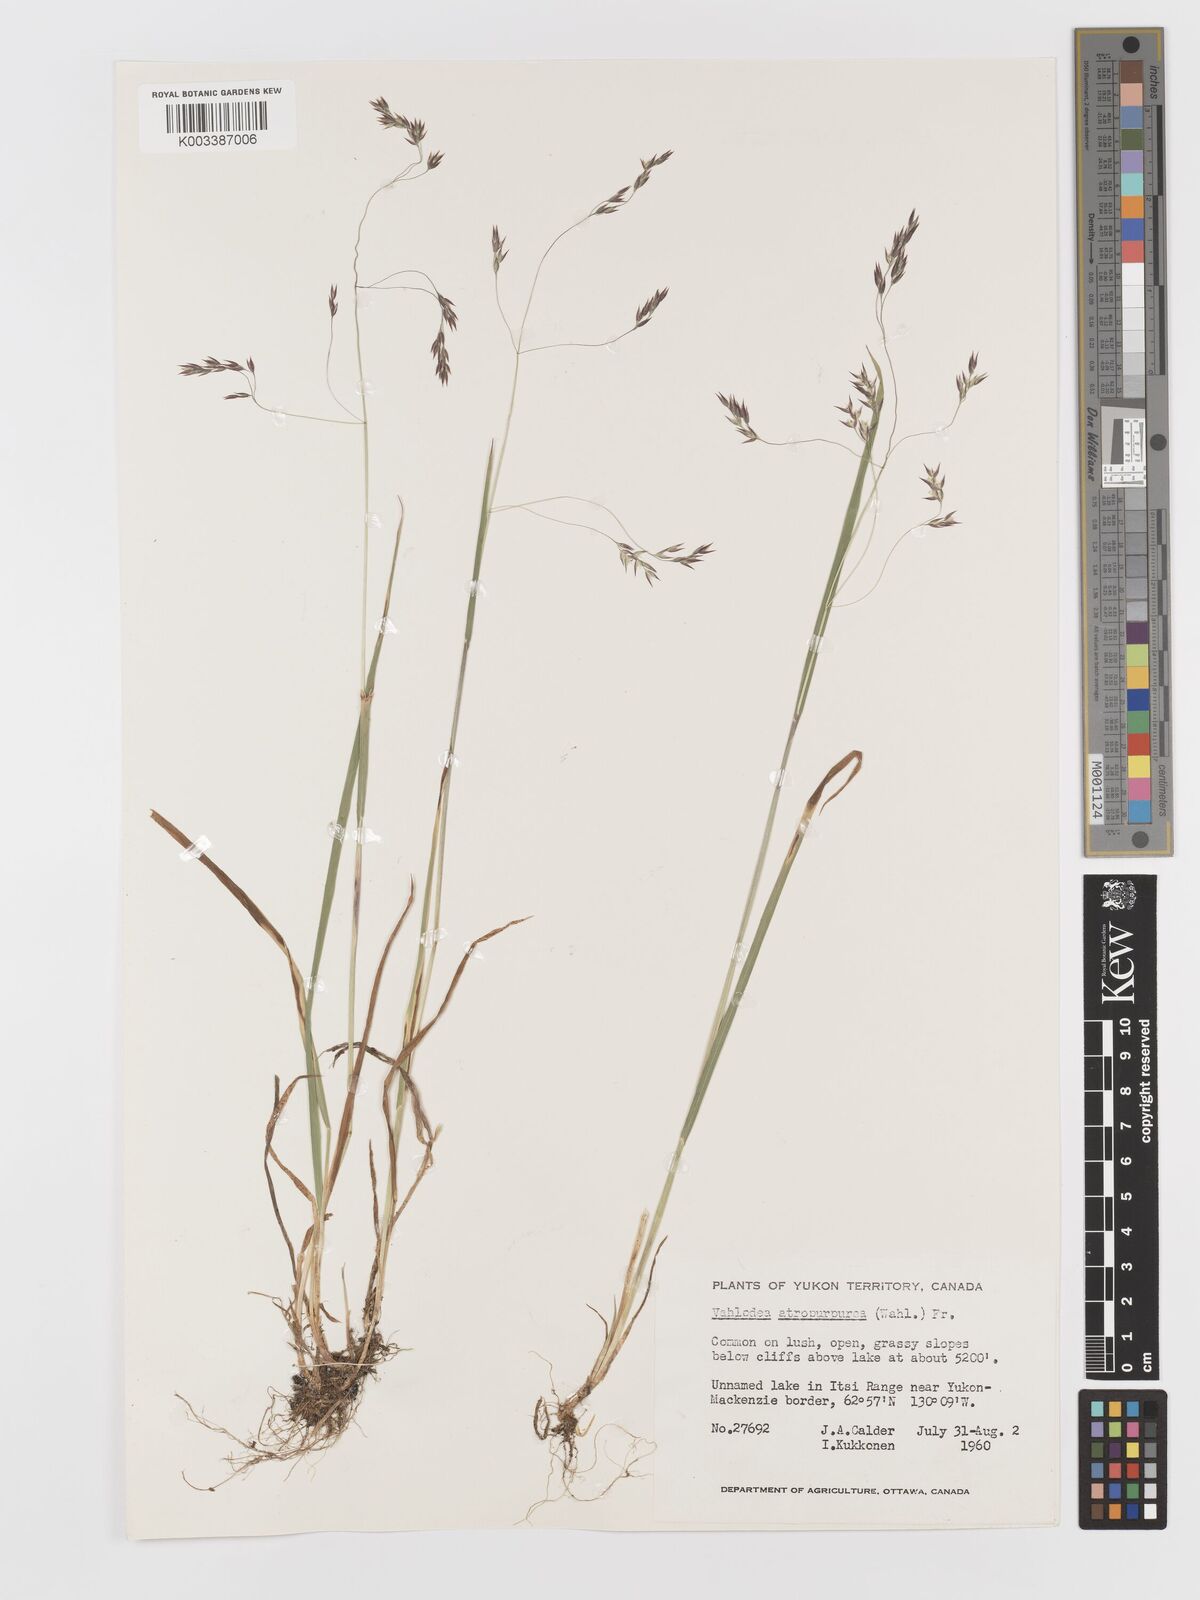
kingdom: Plantae
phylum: Tracheophyta
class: Liliopsida
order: Poales
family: Poaceae
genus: Vahlodea
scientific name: Vahlodea atropurpurea
